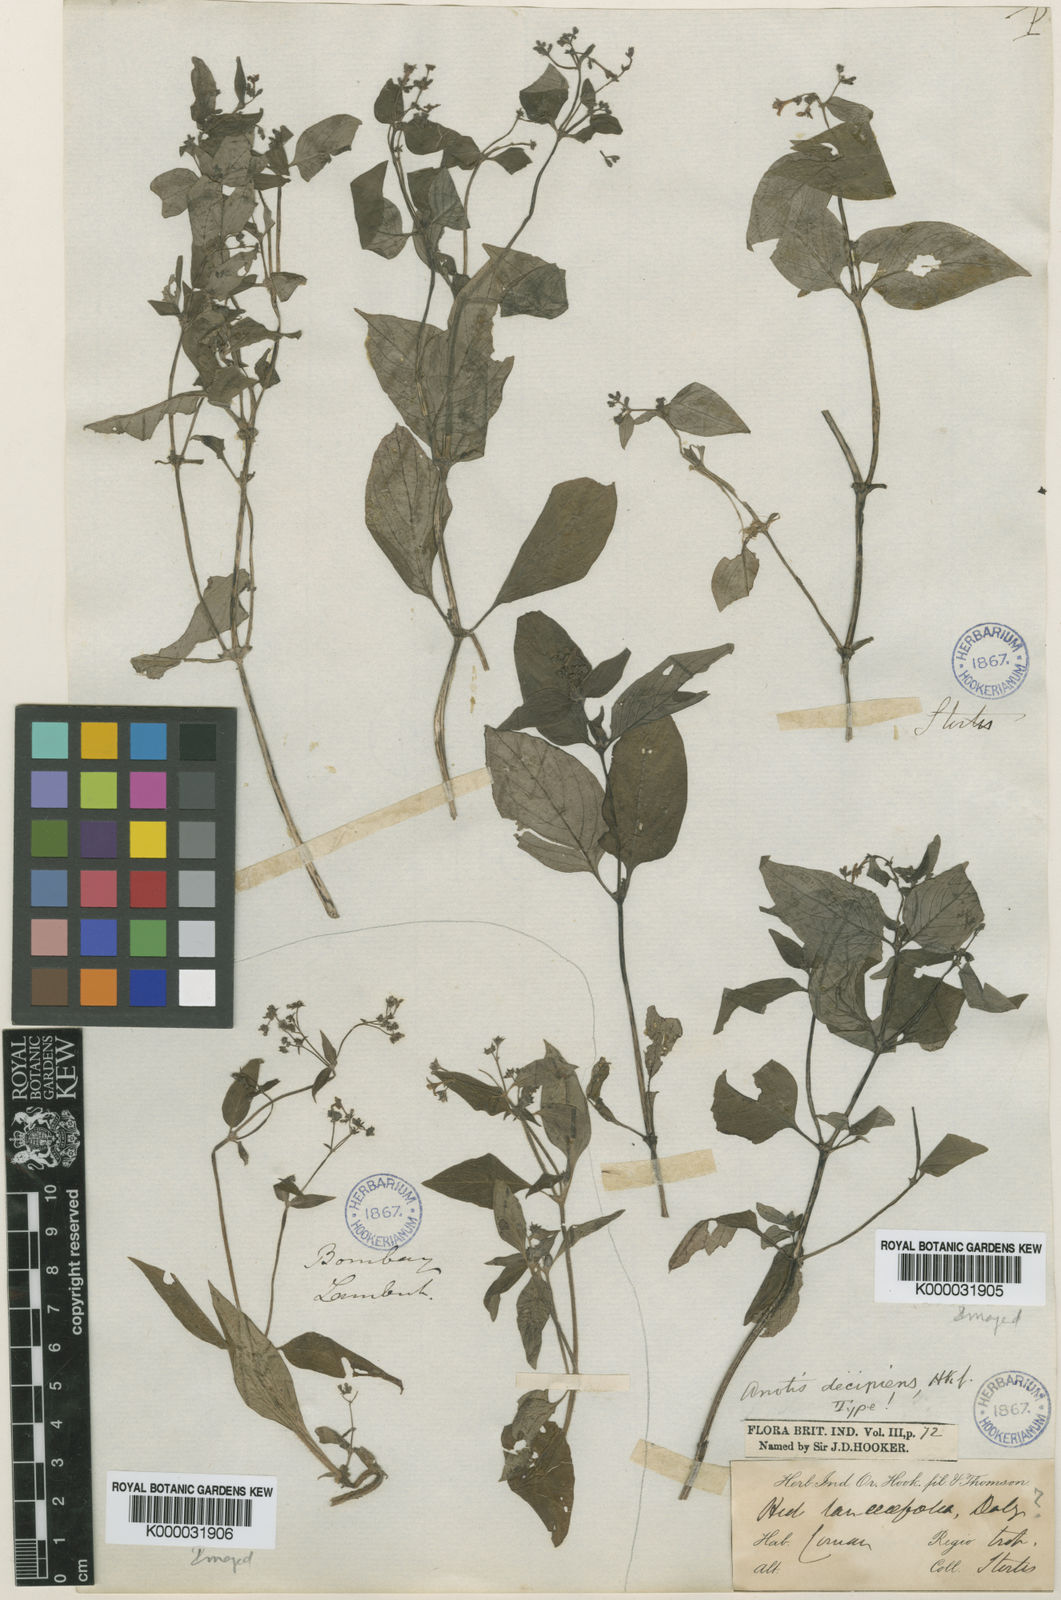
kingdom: Plantae
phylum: Tracheophyta
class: Magnoliopsida
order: Gentianales
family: Rubiaceae
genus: Neanotis
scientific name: Neanotis decipiens
